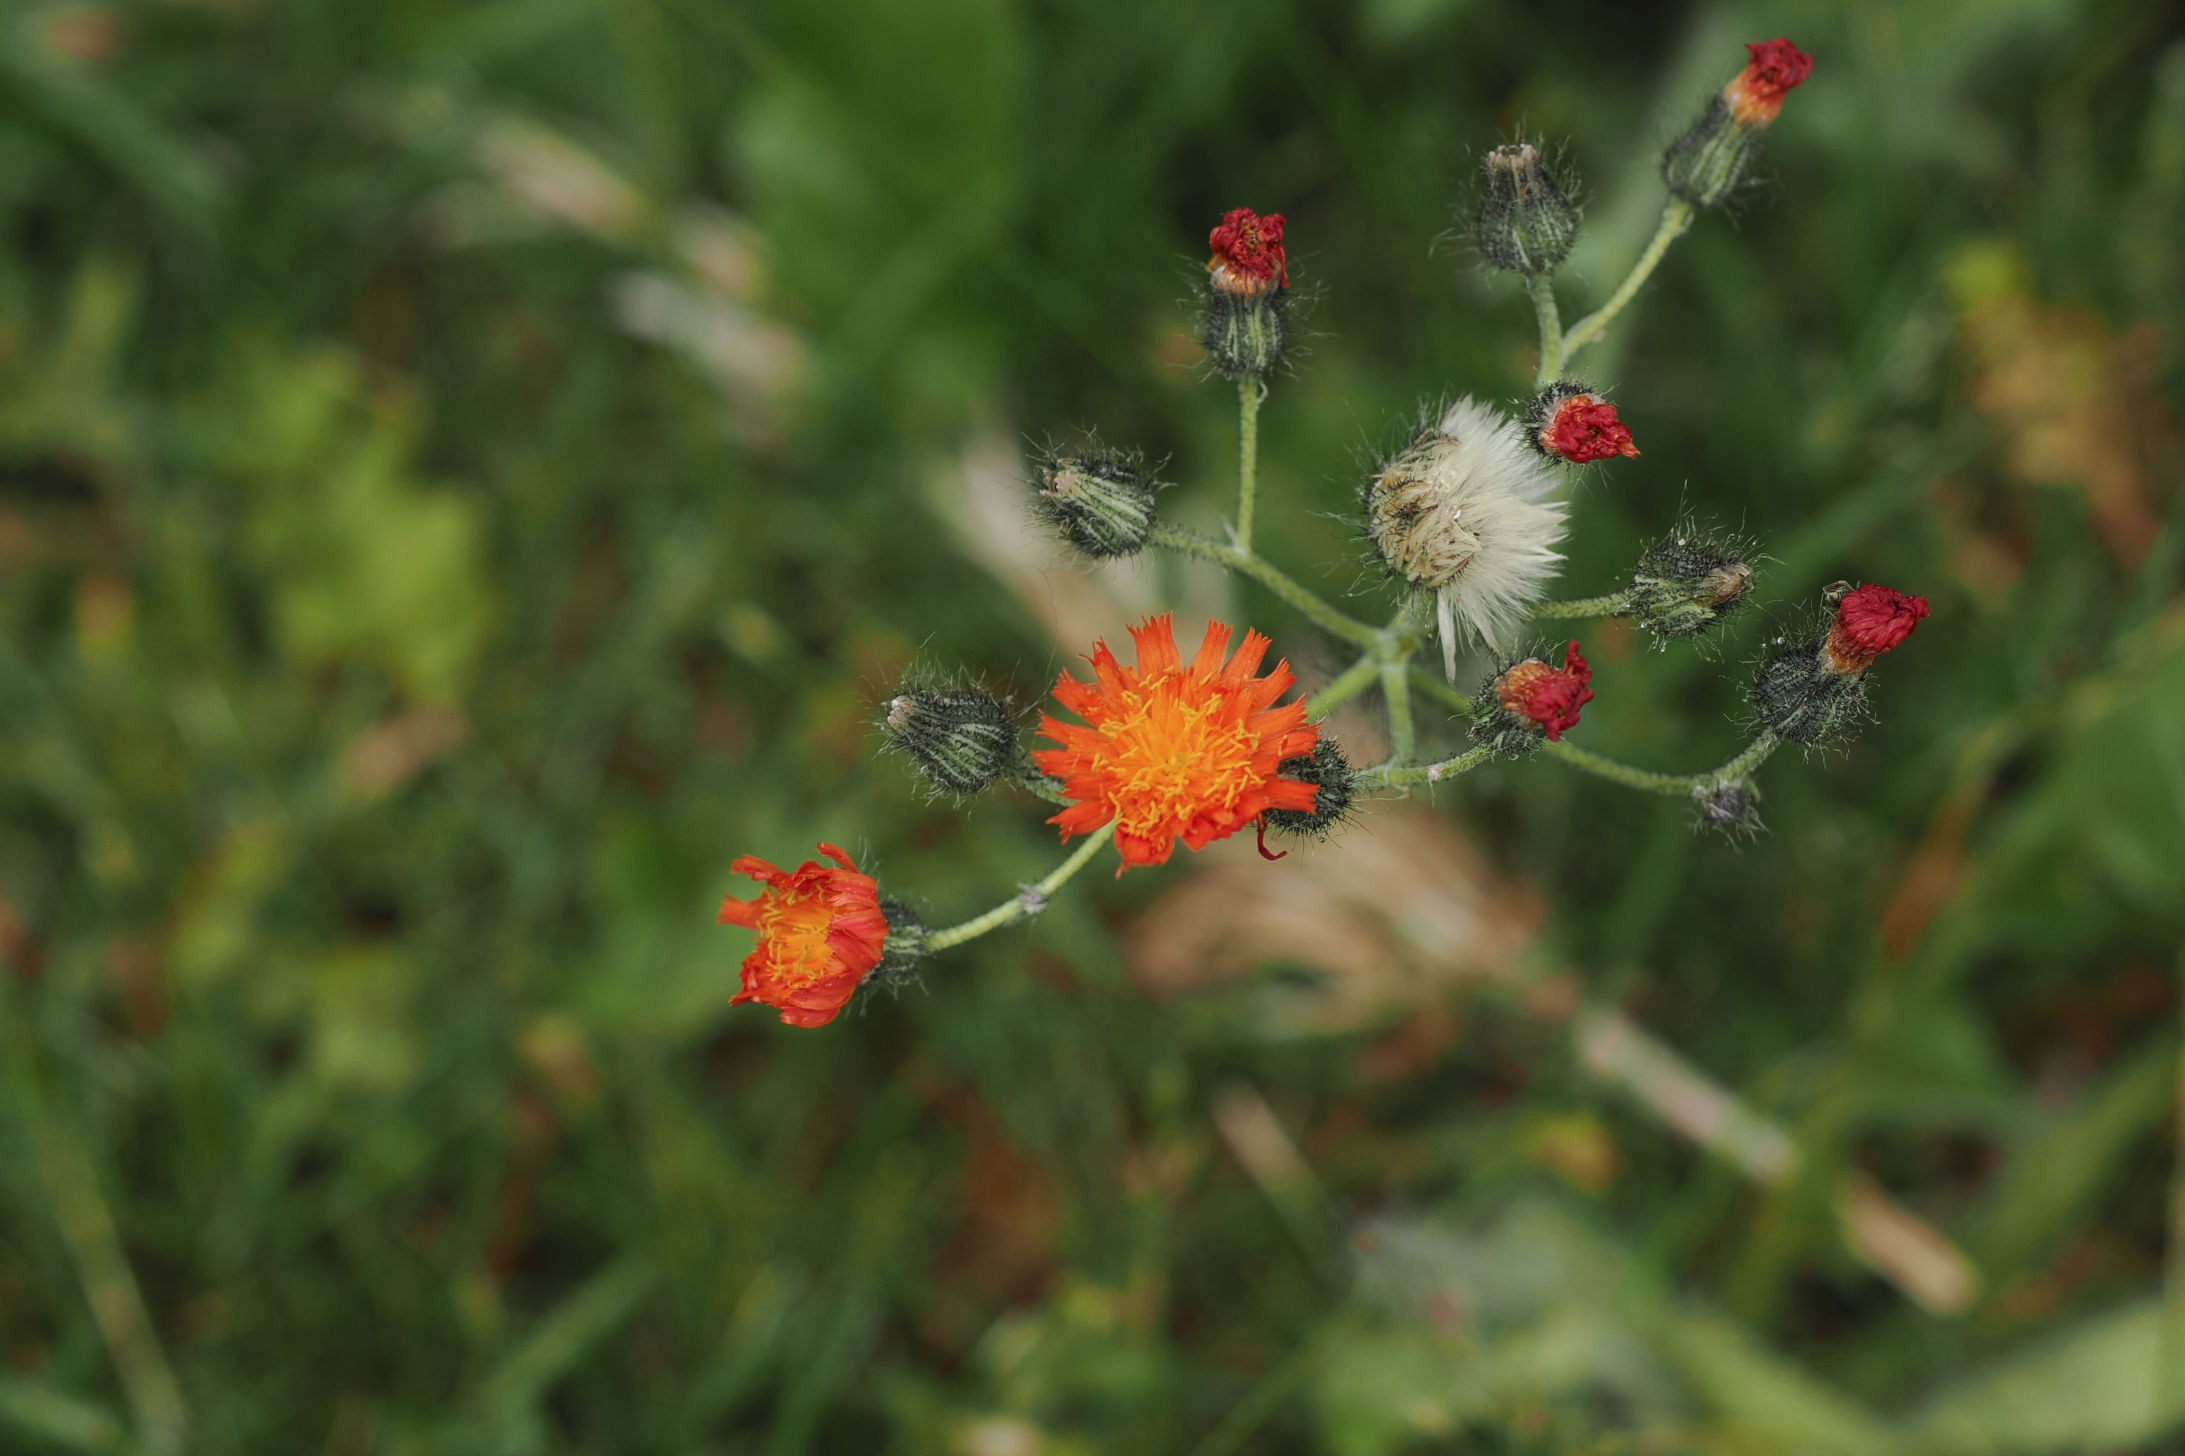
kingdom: Plantae
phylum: Tracheophyta
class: Magnoliopsida
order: Asterales
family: Asteraceae
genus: Pilosella
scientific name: Pilosella aurantiaca
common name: Pomerans-høgeurt
